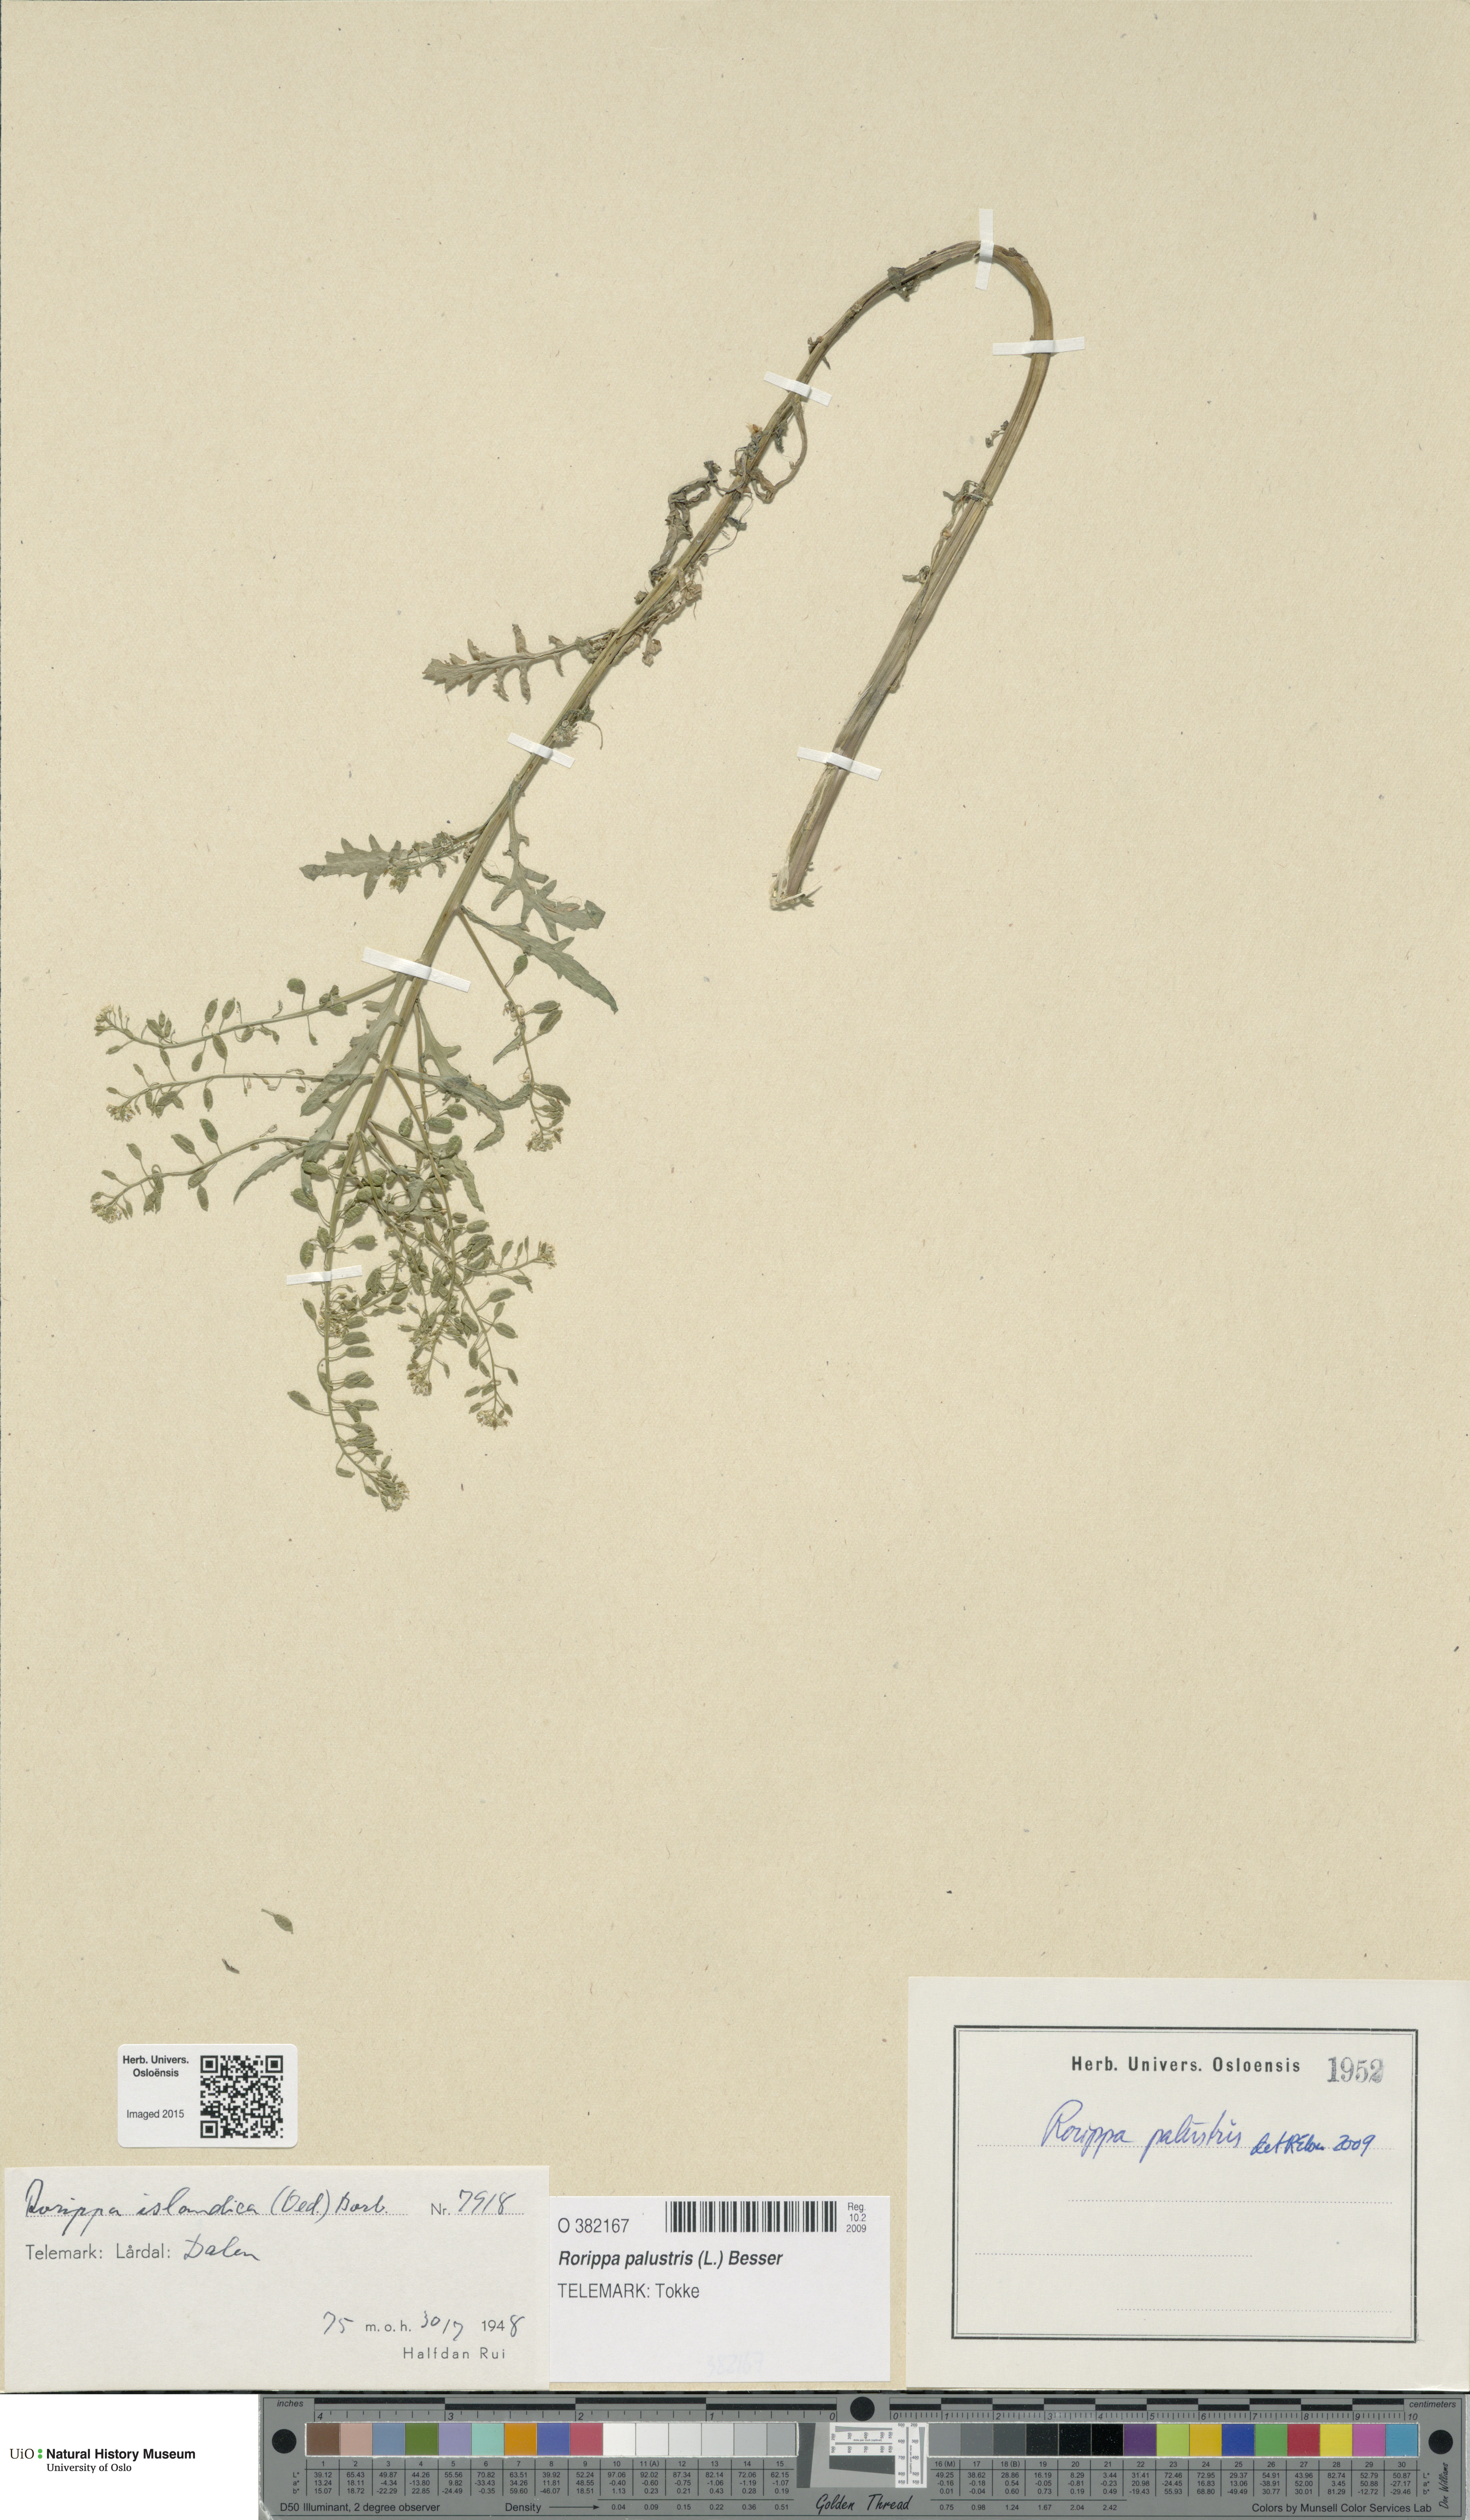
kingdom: Plantae
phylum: Tracheophyta
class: Magnoliopsida
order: Brassicales
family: Brassicaceae
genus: Rorippa
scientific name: Rorippa palustris
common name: Marsh yellow-cress
